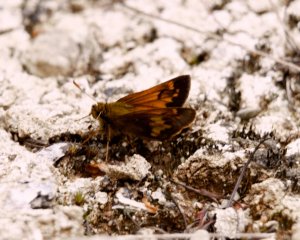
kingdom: Animalia
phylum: Arthropoda
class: Insecta
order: Lepidoptera
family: Hesperiidae
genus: Lon
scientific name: Lon hobomok
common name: Hobomok Skipper
